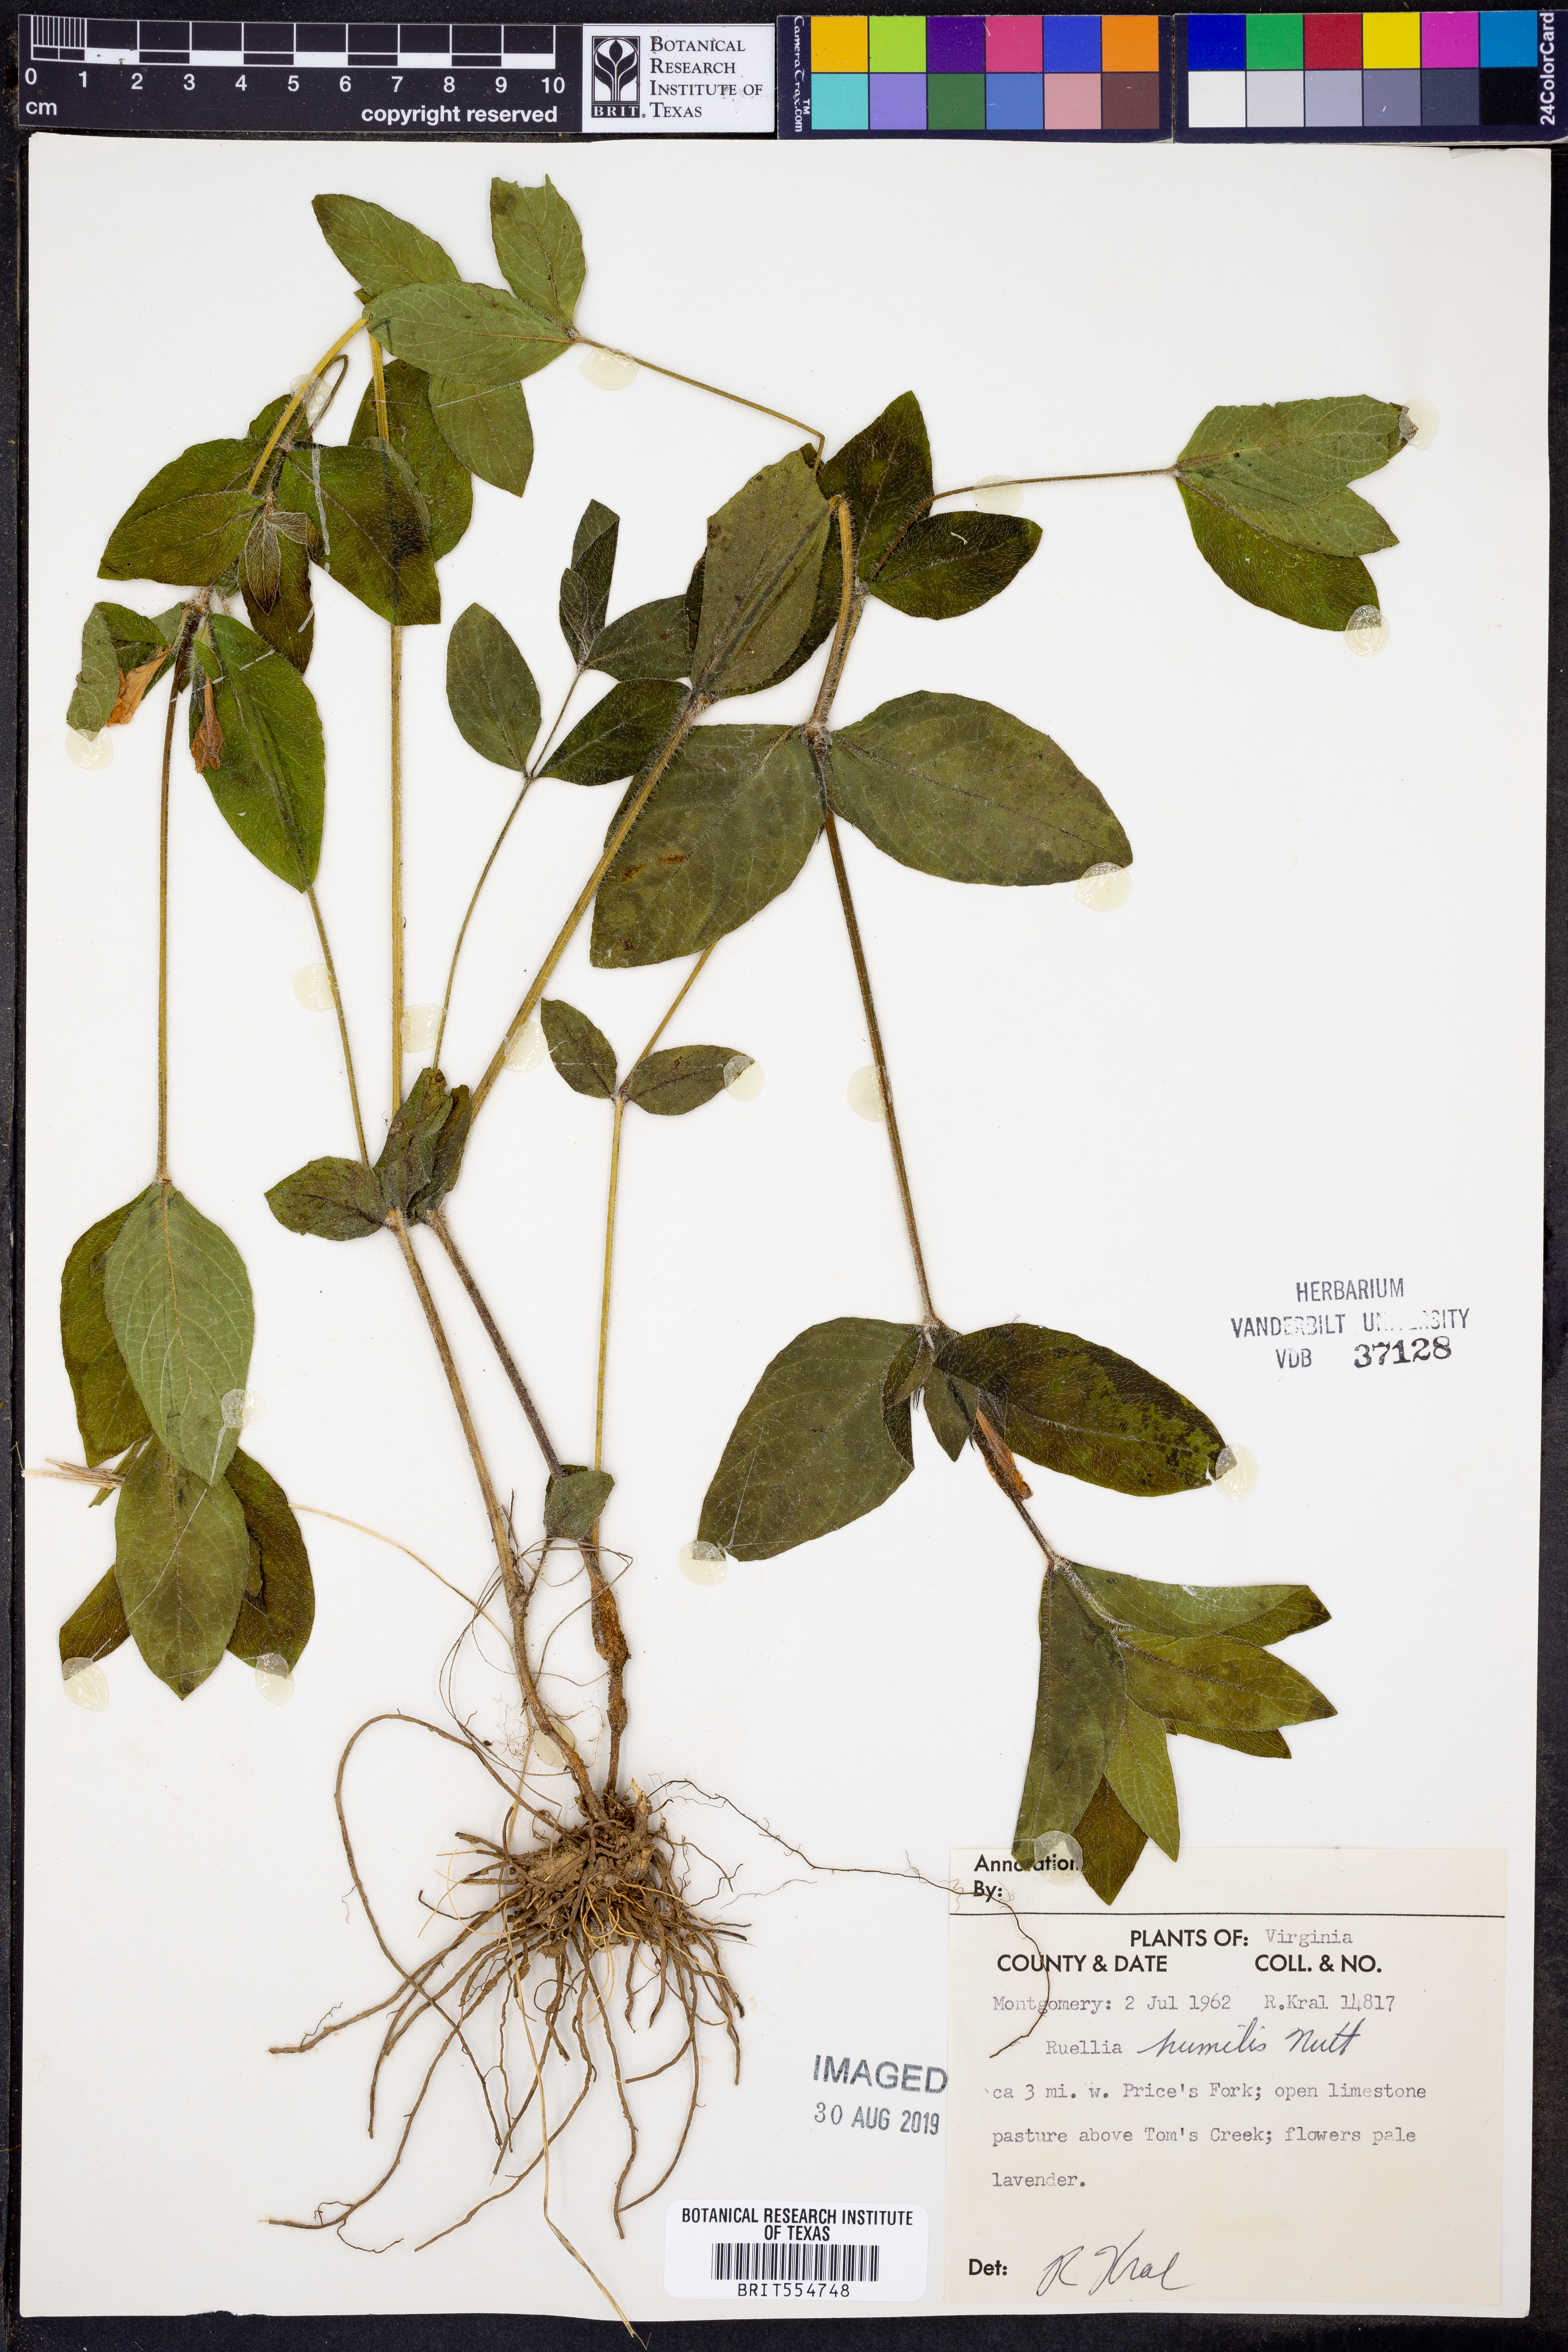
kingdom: Plantae
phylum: Tracheophyta
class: Magnoliopsida
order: Lamiales
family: Acanthaceae
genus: Ruellia
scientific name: Ruellia humilis
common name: Fringe-leaf ruellia
